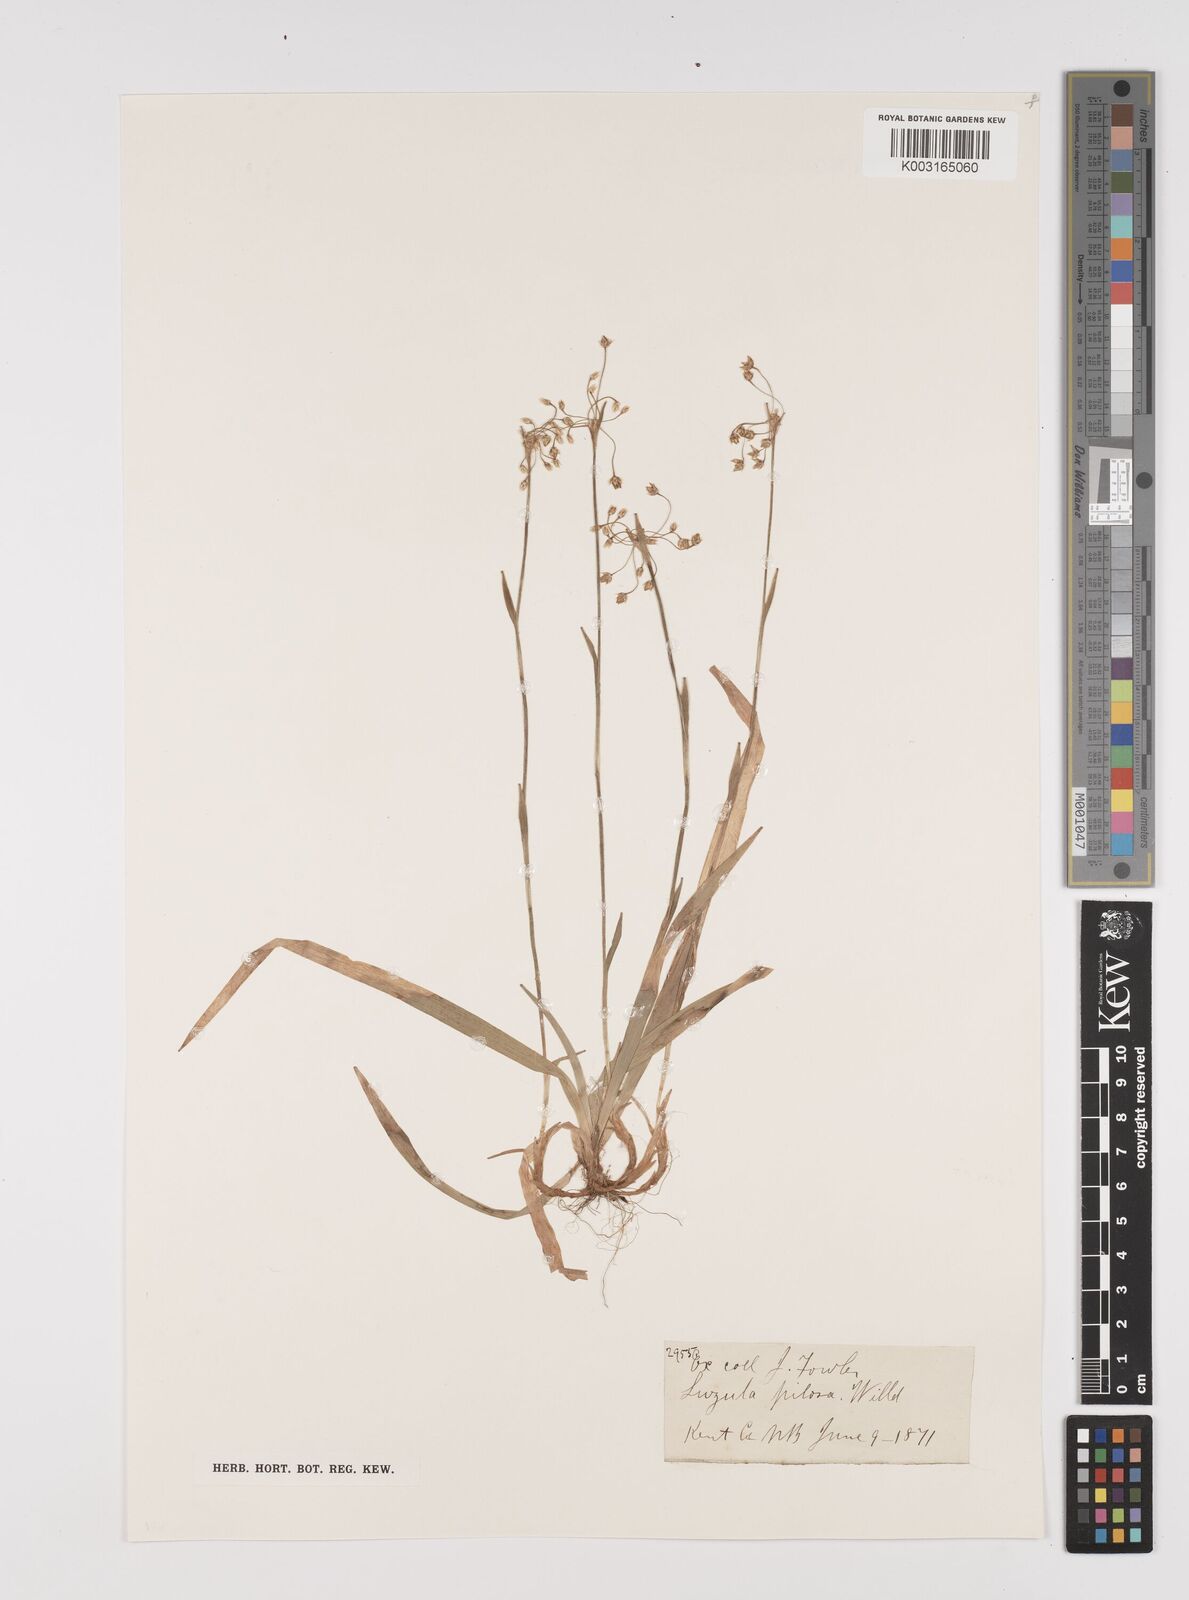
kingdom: Plantae
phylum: Tracheophyta
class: Liliopsida
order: Poales
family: Juncaceae
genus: Luzula
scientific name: Luzula acuminata
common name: Hairy woodrush
